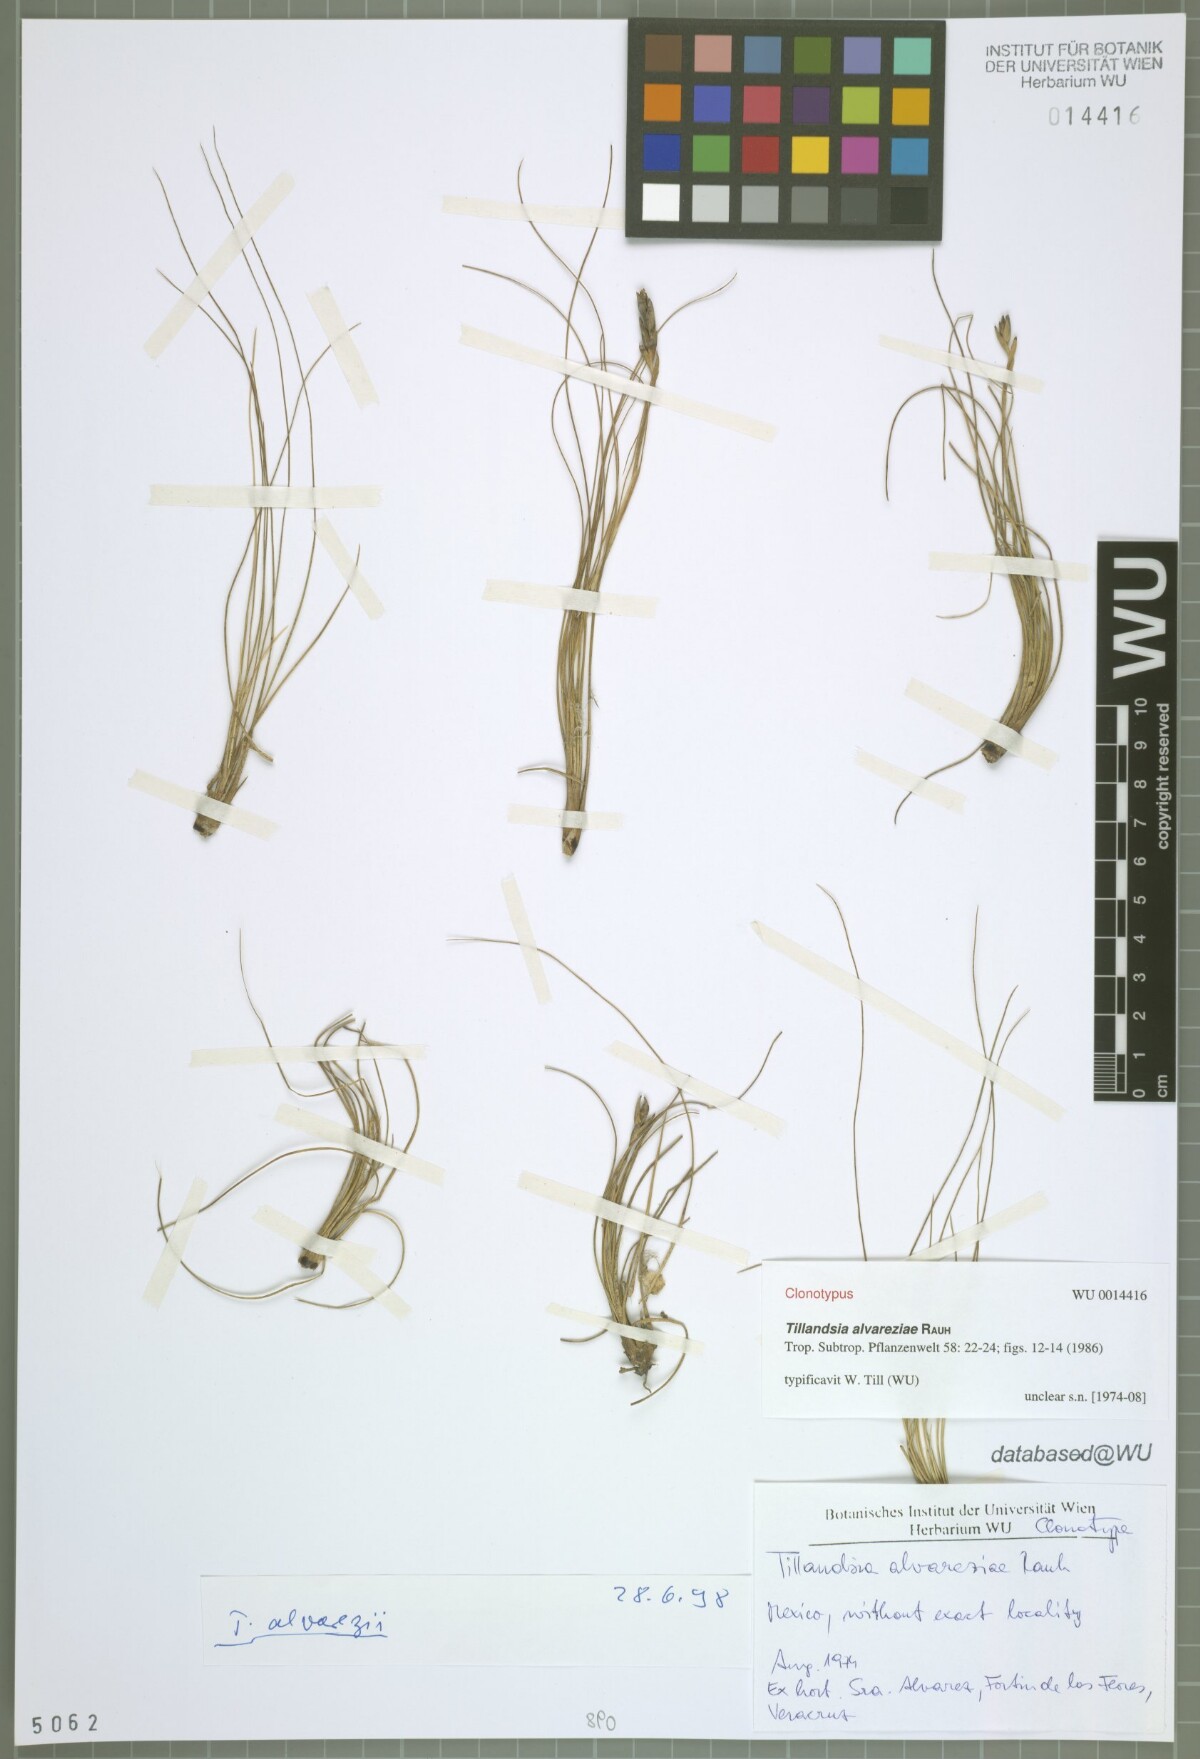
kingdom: Plantae
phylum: Tracheophyta
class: Liliopsida
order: Poales
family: Bromeliaceae
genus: Tillandsia
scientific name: Tillandsia alvareziae
